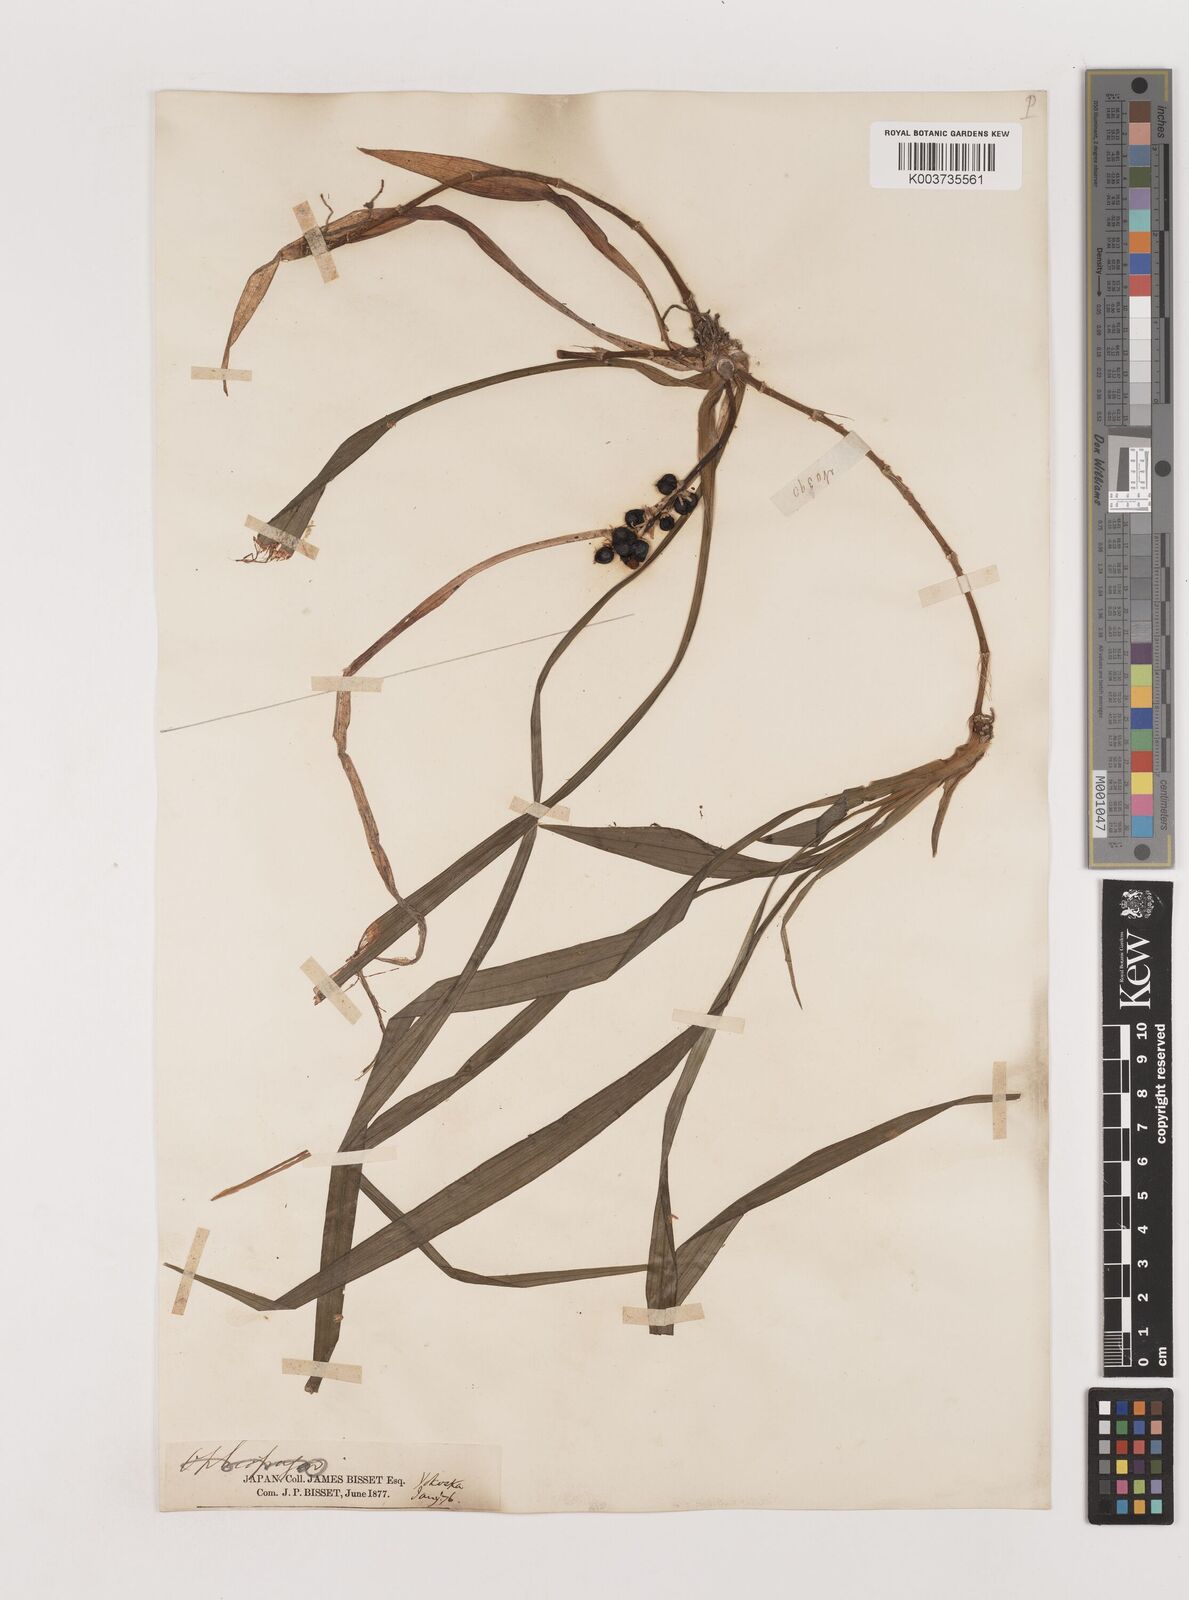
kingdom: Plantae
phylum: Tracheophyta
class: Liliopsida
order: Asparagales
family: Asparagaceae
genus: Reineckea
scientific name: Reineckea carnea
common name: Reineckea
